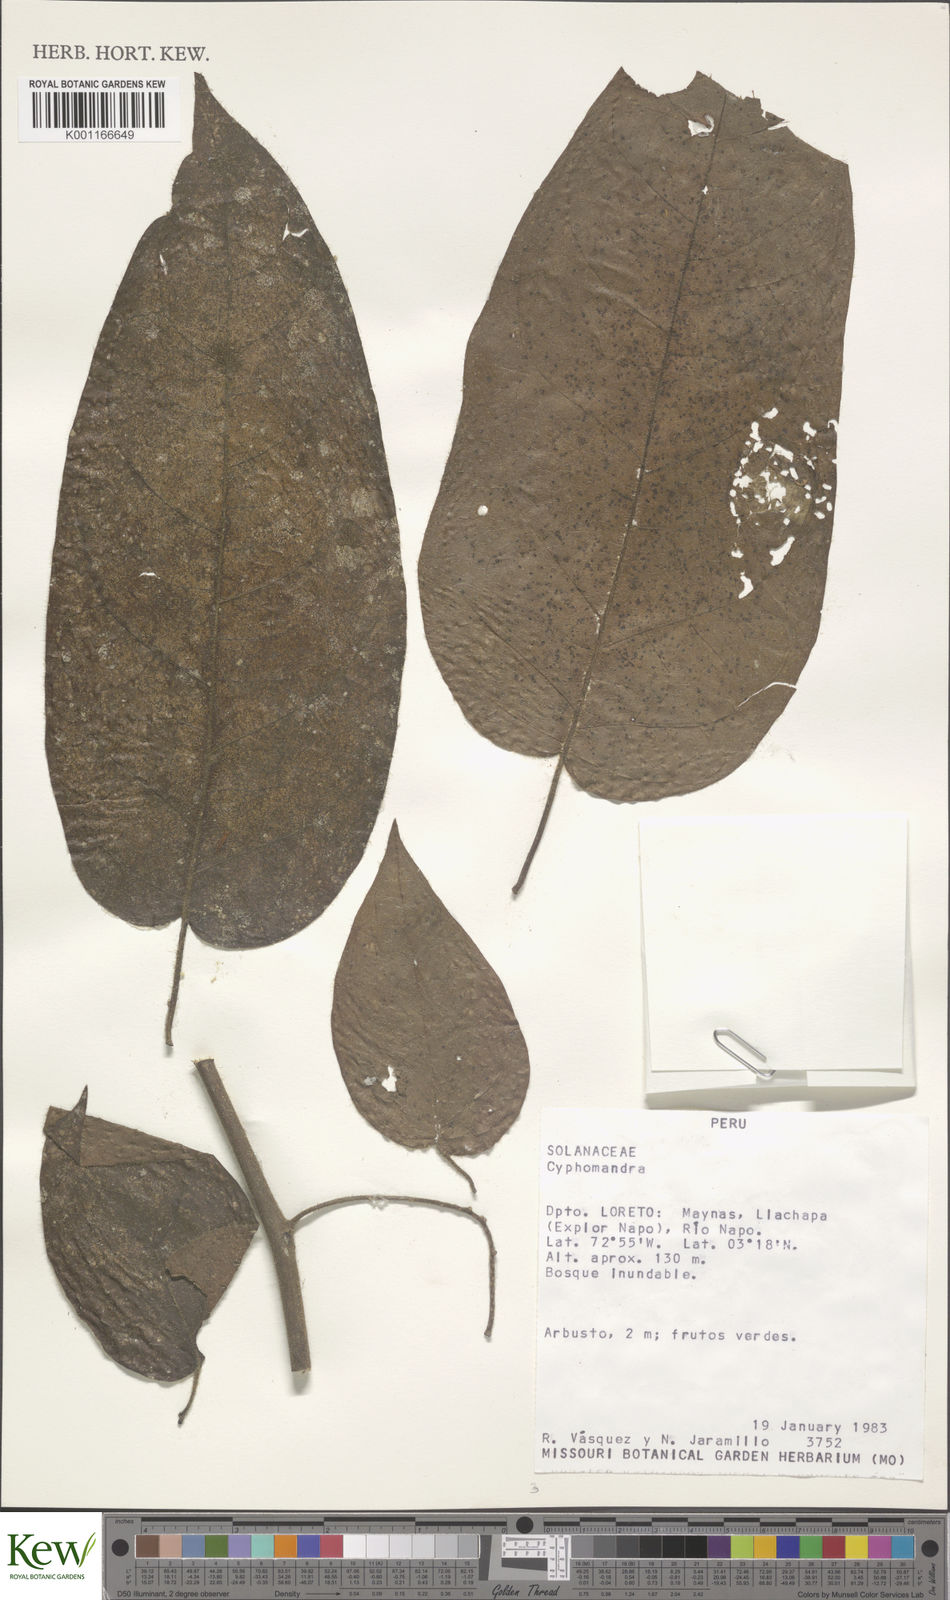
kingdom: Plantae
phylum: Tracheophyta
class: Magnoliopsida
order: Solanales
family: Solanaceae
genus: Solanum
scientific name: Solanum
